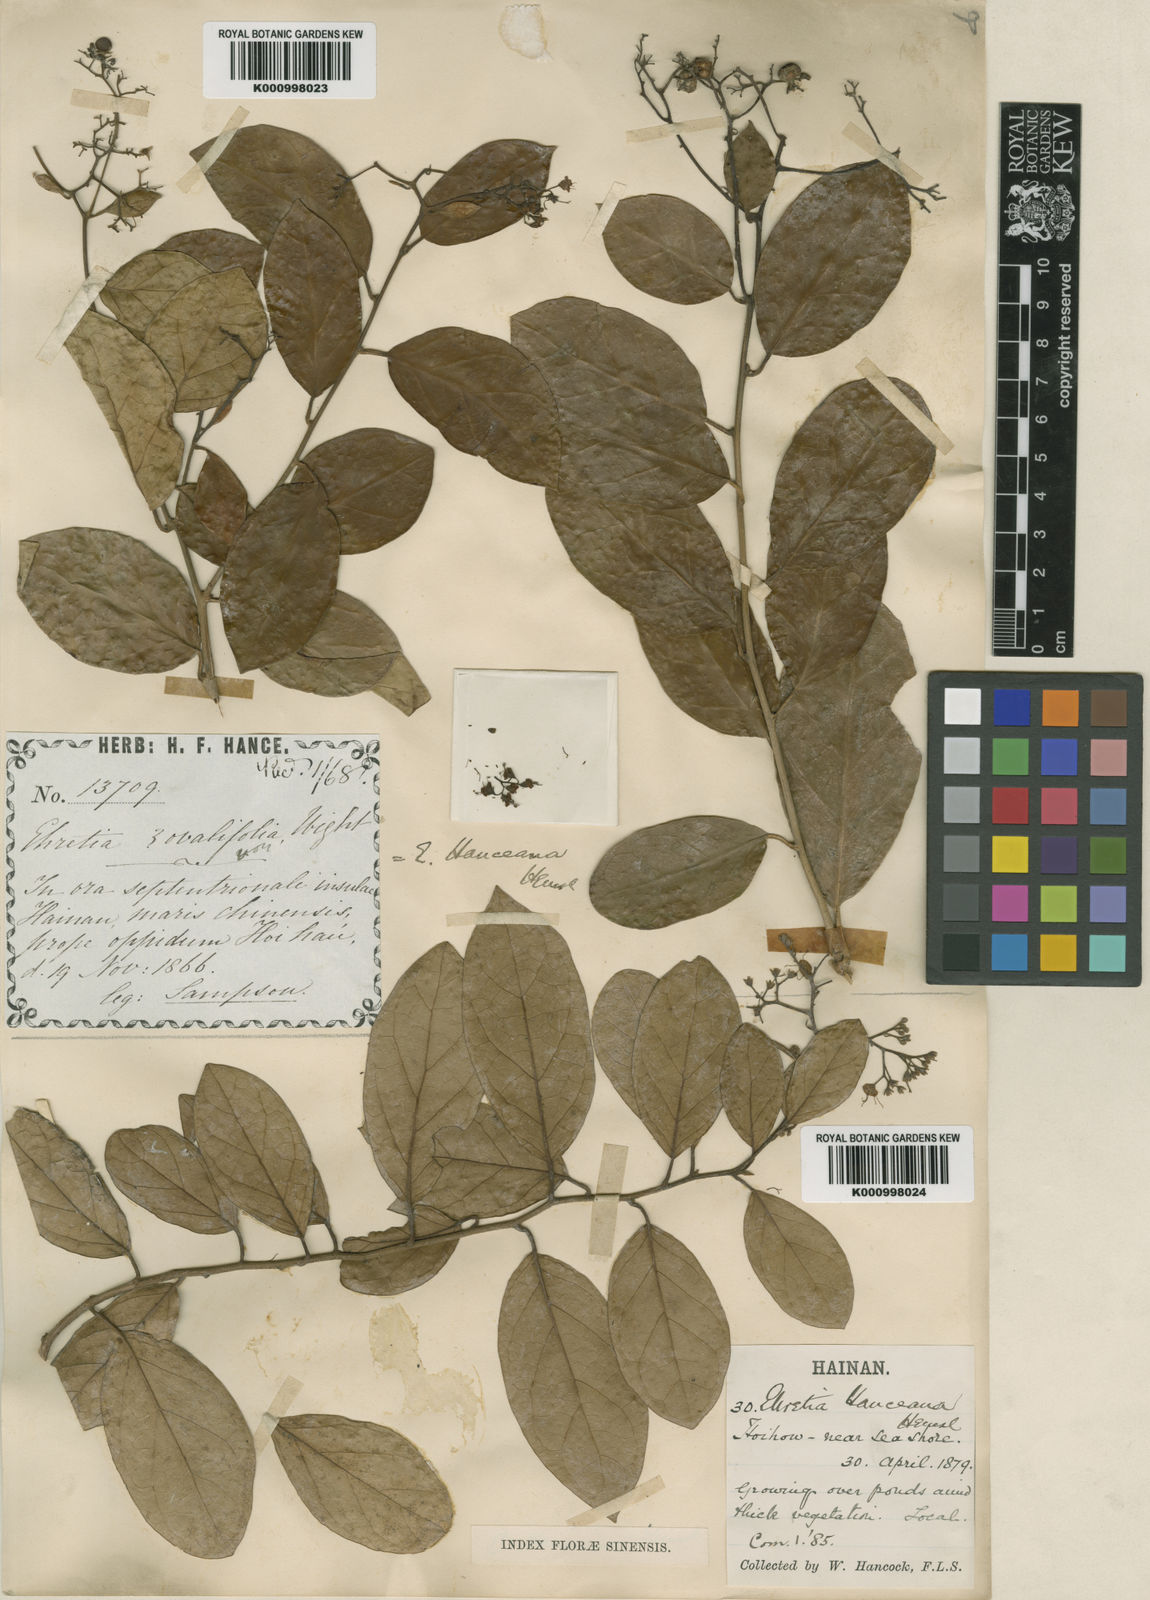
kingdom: Plantae
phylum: Tracheophyta
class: Magnoliopsida
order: Boraginales
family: Ehretiaceae
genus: Ehretia
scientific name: Ehretia asperula
